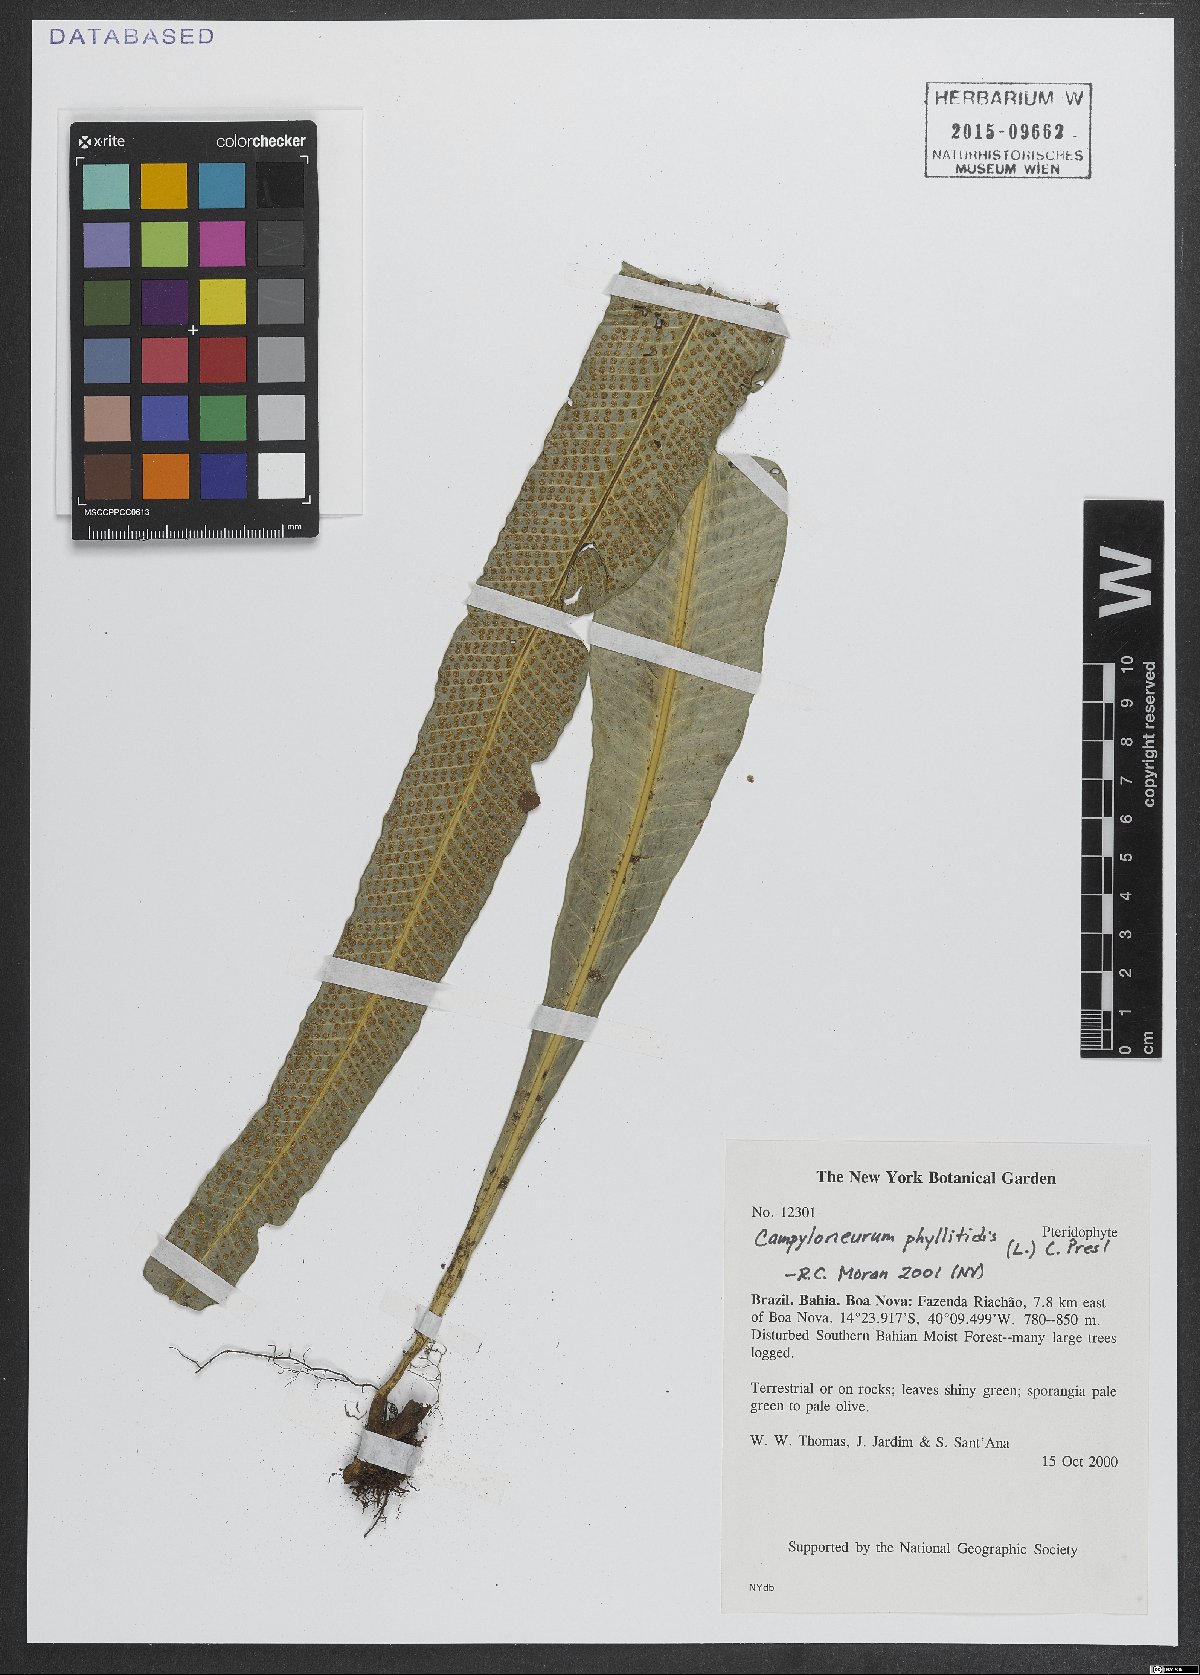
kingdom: Plantae
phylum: Tracheophyta
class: Polypodiopsida
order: Polypodiales
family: Polypodiaceae
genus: Campyloneurum
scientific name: Campyloneurum phyllitidis
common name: Cow-tongue fern
